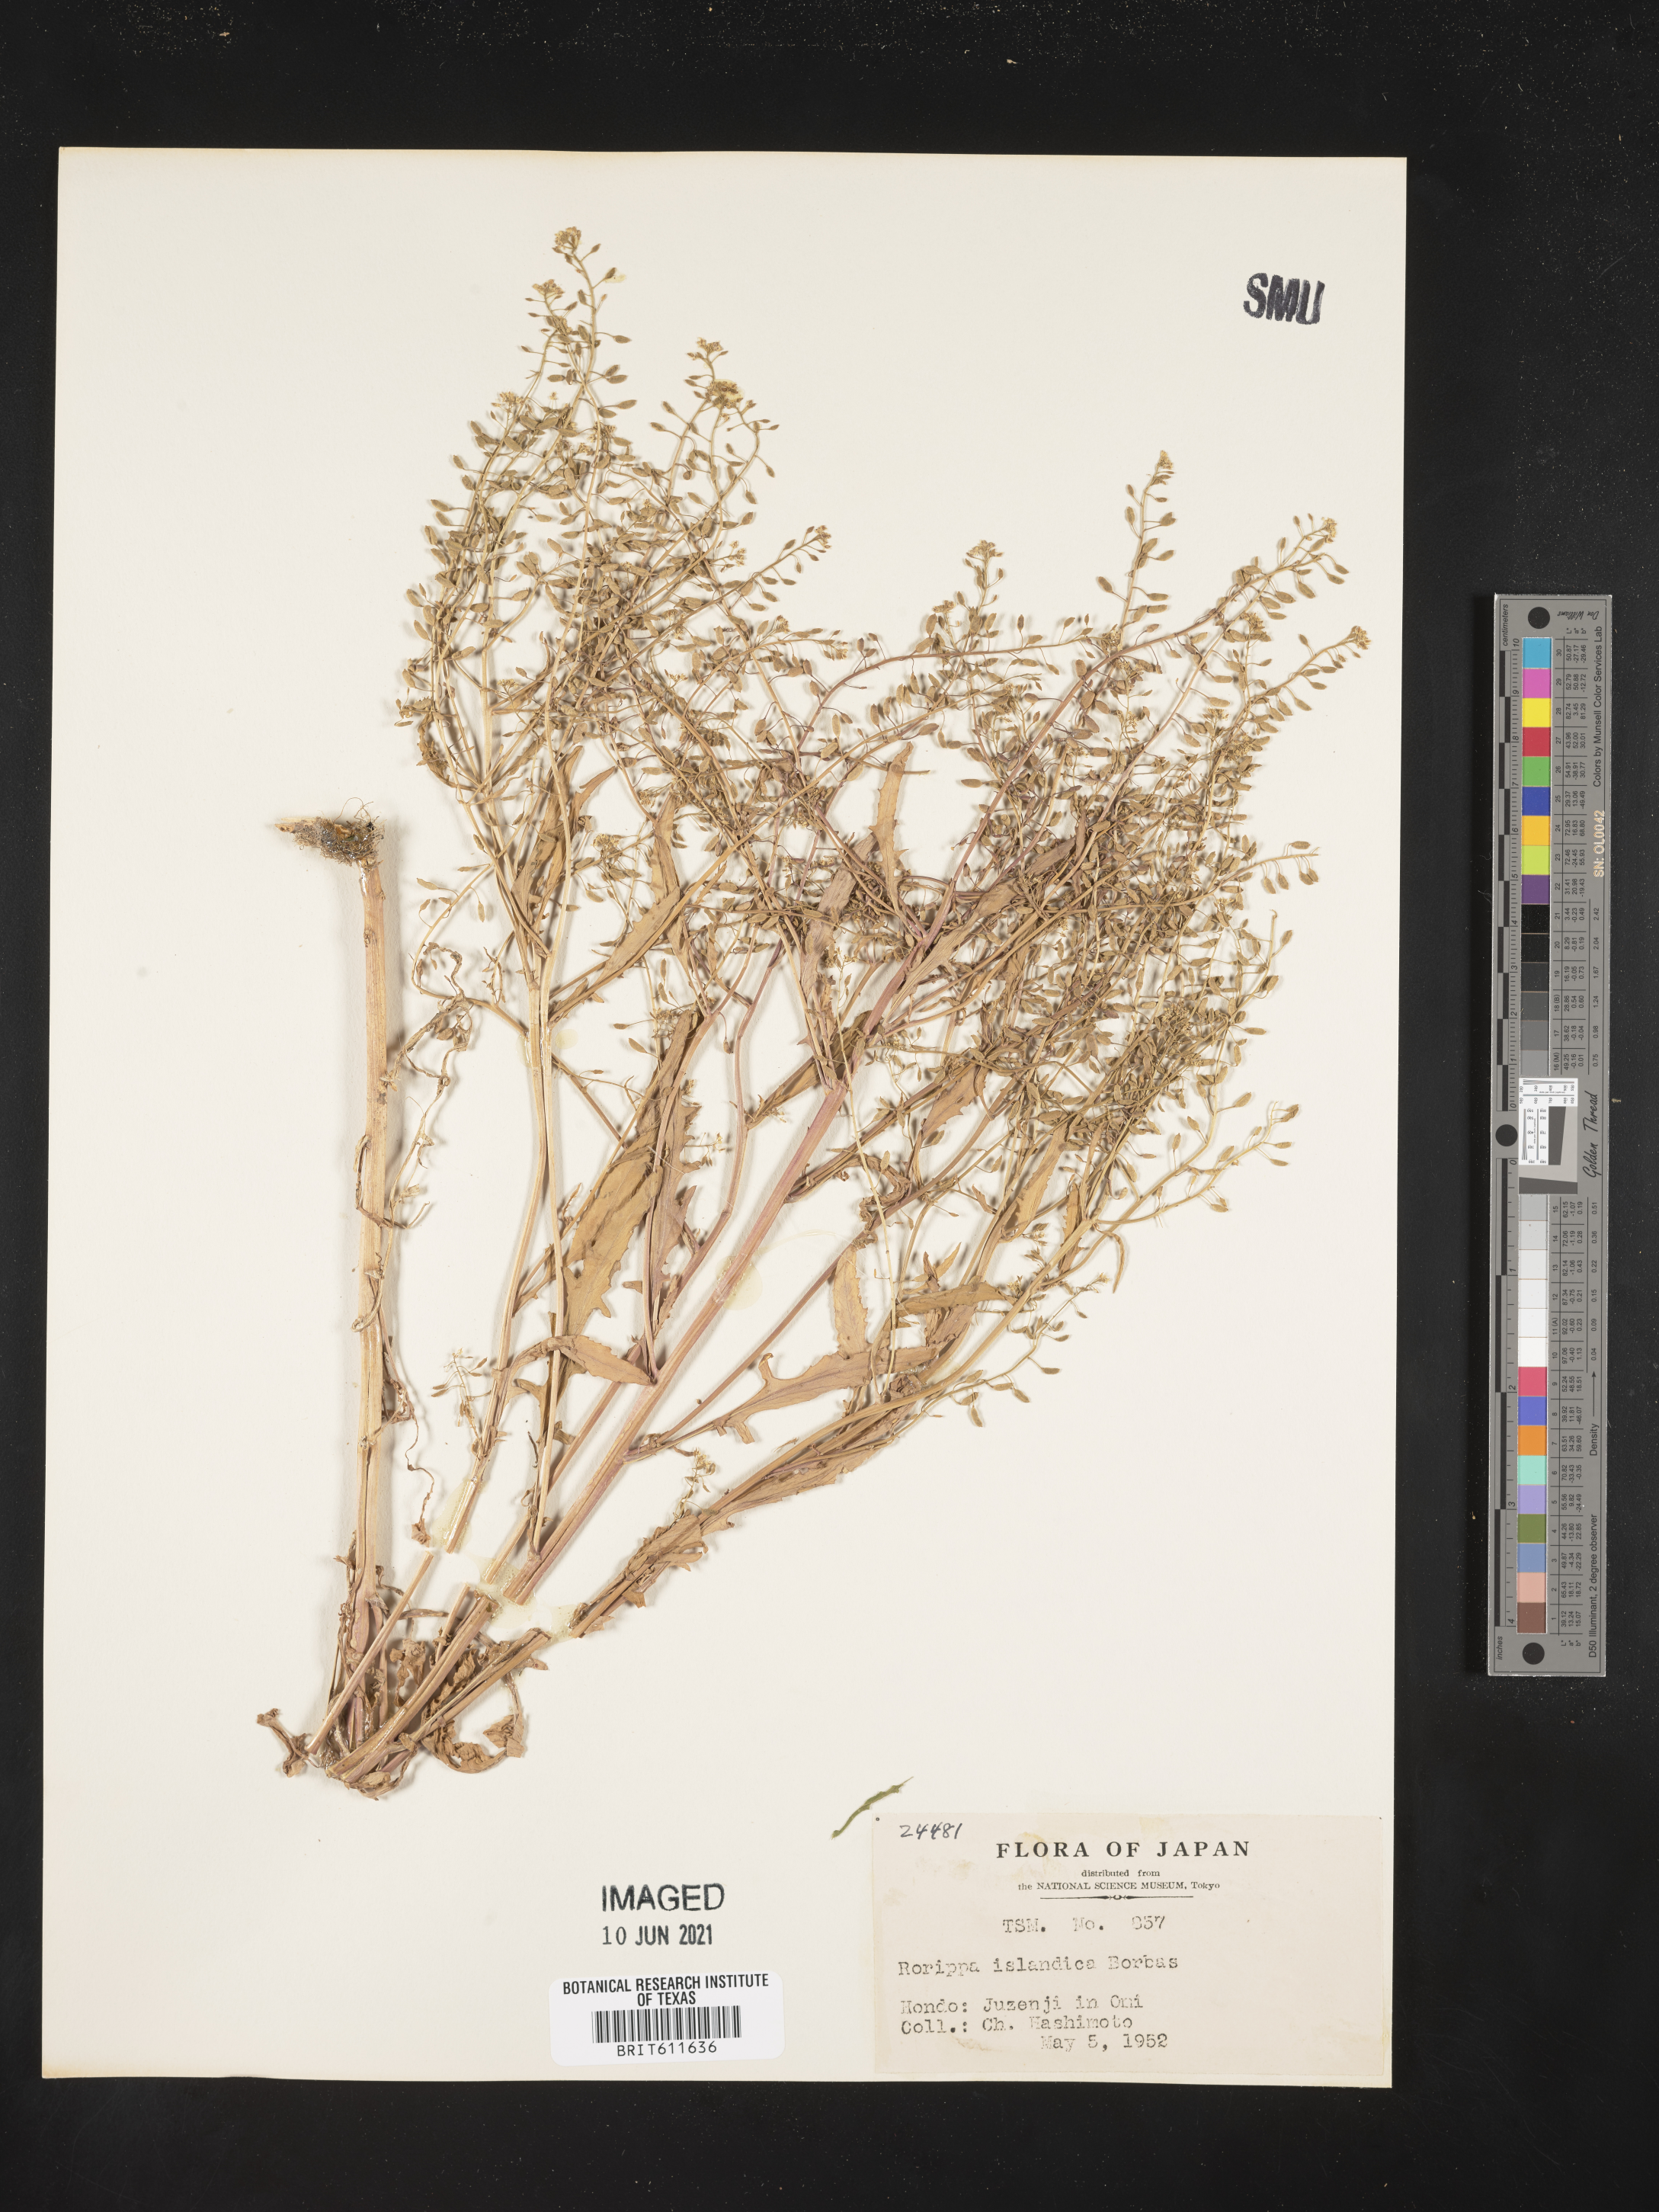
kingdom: Plantae
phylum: Tracheophyta
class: Magnoliopsida
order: Brassicales
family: Brassicaceae
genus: Rorippa
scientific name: Rorippa islandica
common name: Marsh cress
